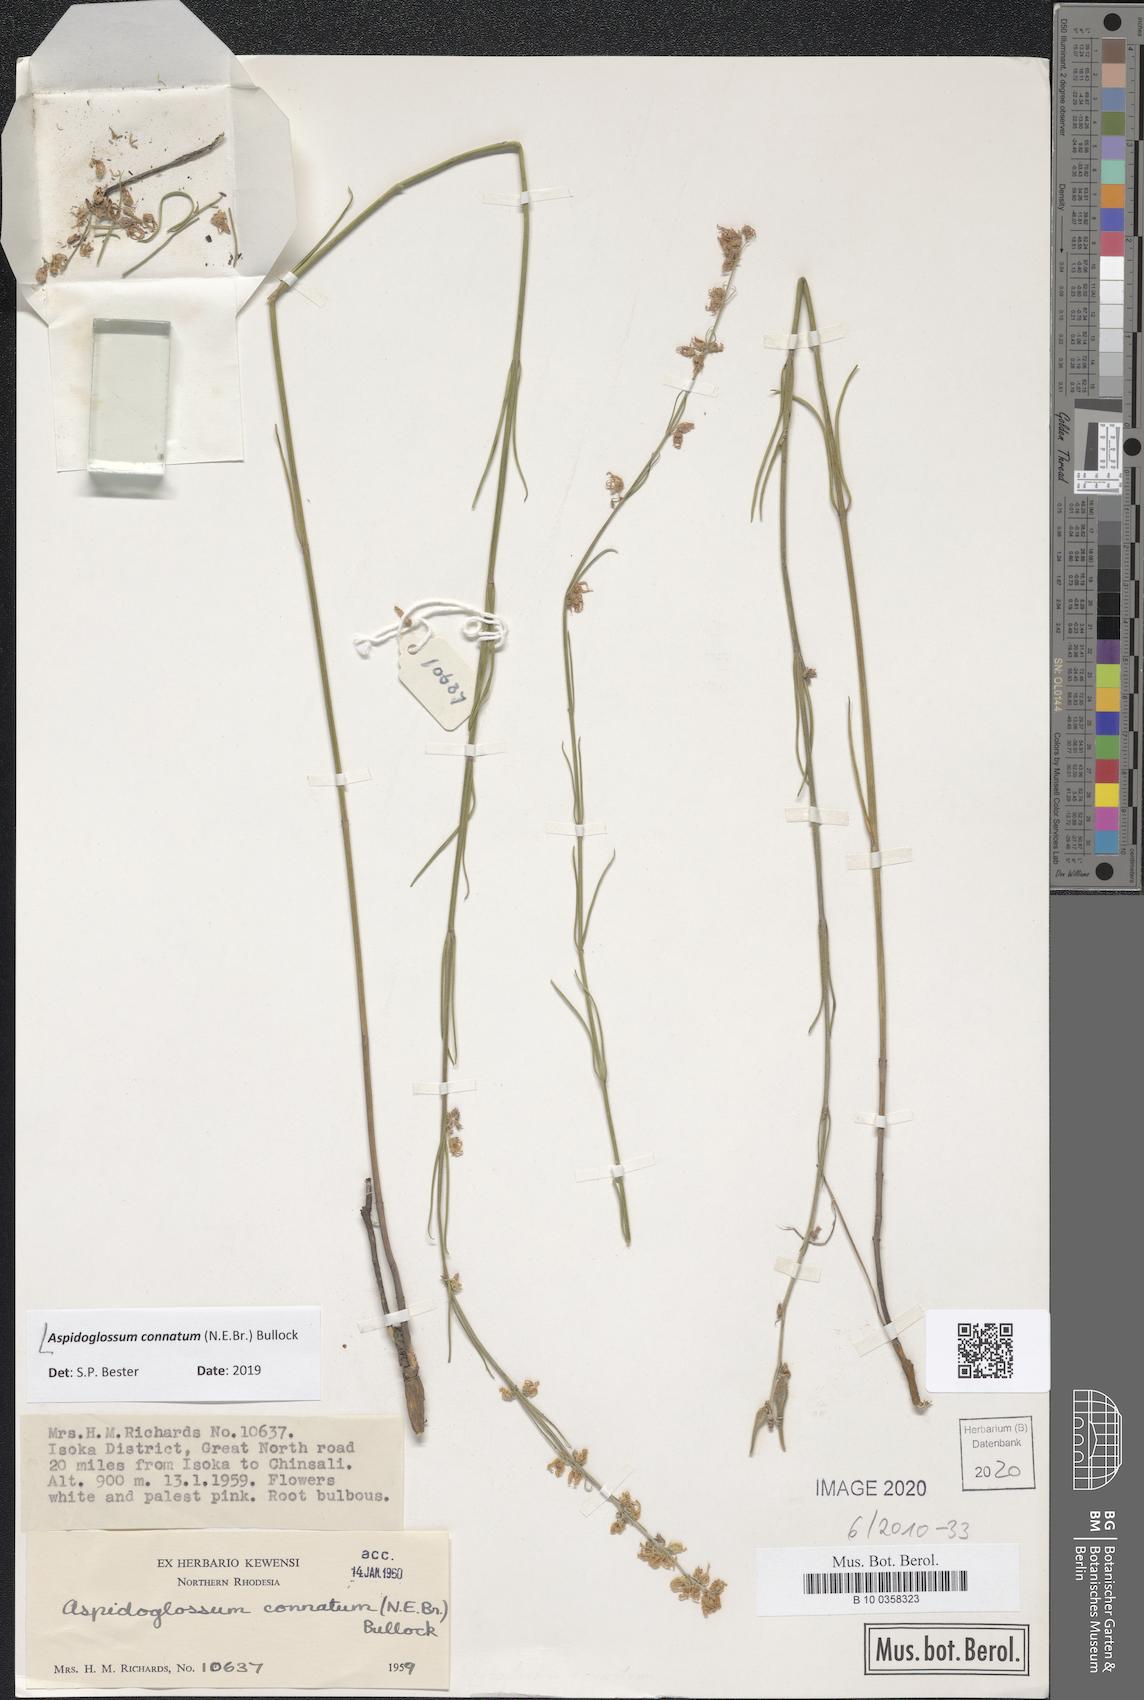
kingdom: Plantae
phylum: Tracheophyta
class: Magnoliopsida
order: Gentianales
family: Apocynaceae
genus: Aspidoglossum
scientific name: Aspidoglossum connatum
